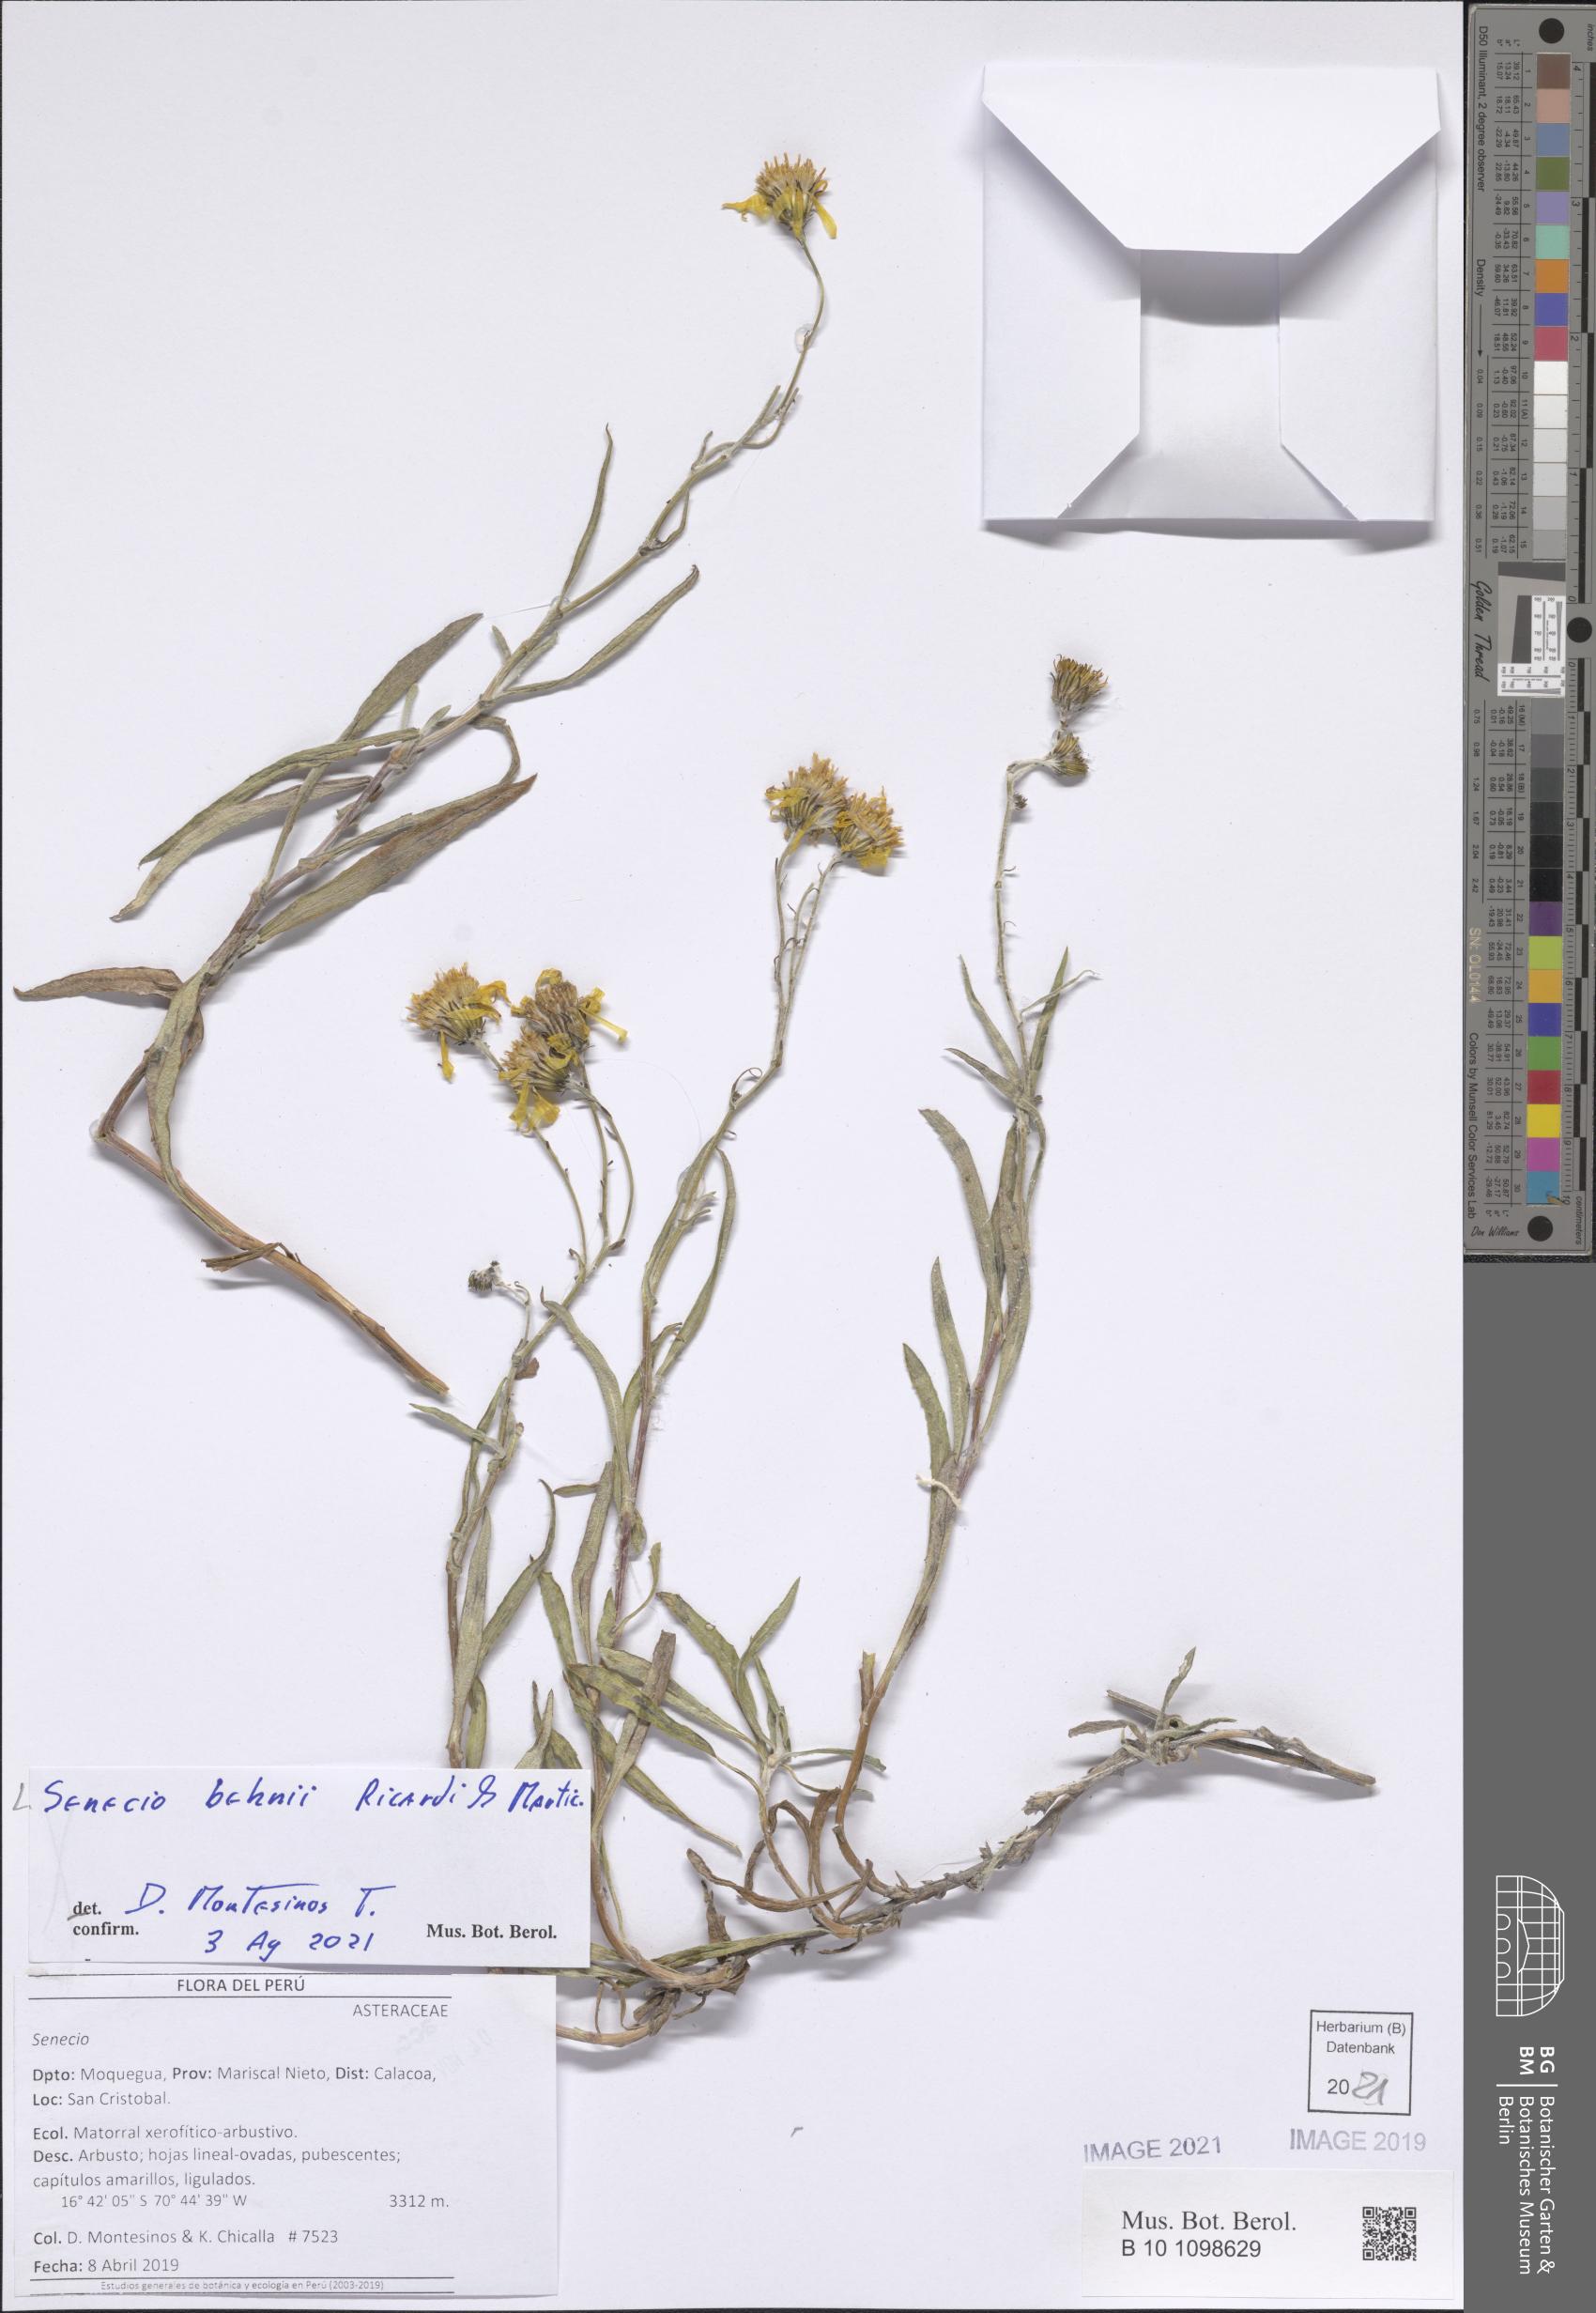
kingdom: Plantae
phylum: Tracheophyta
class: Magnoliopsida
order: Asterales
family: Asteraceae
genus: Senecio
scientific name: Senecio behnii
